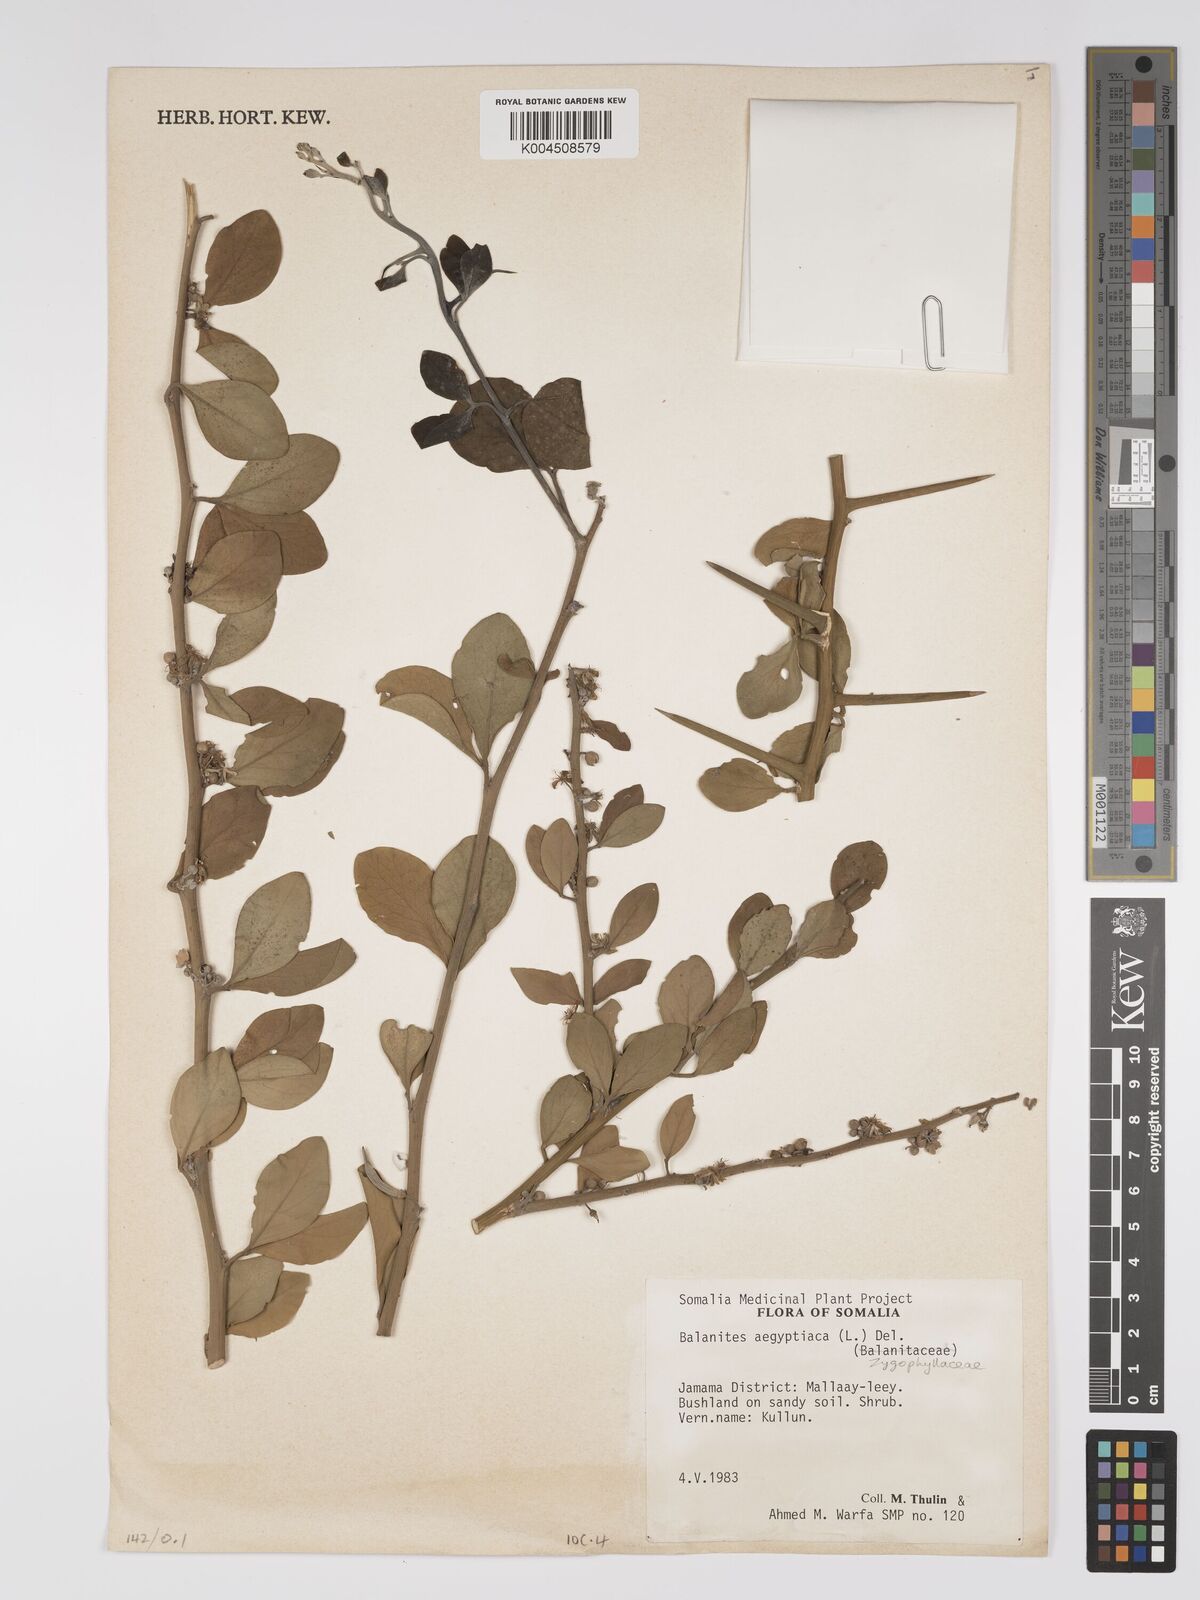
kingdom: Plantae
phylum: Tracheophyta
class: Magnoliopsida
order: Zygophyllales
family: Zygophyllaceae
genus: Balanites
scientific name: Balanites aegyptiaca
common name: Balanites
